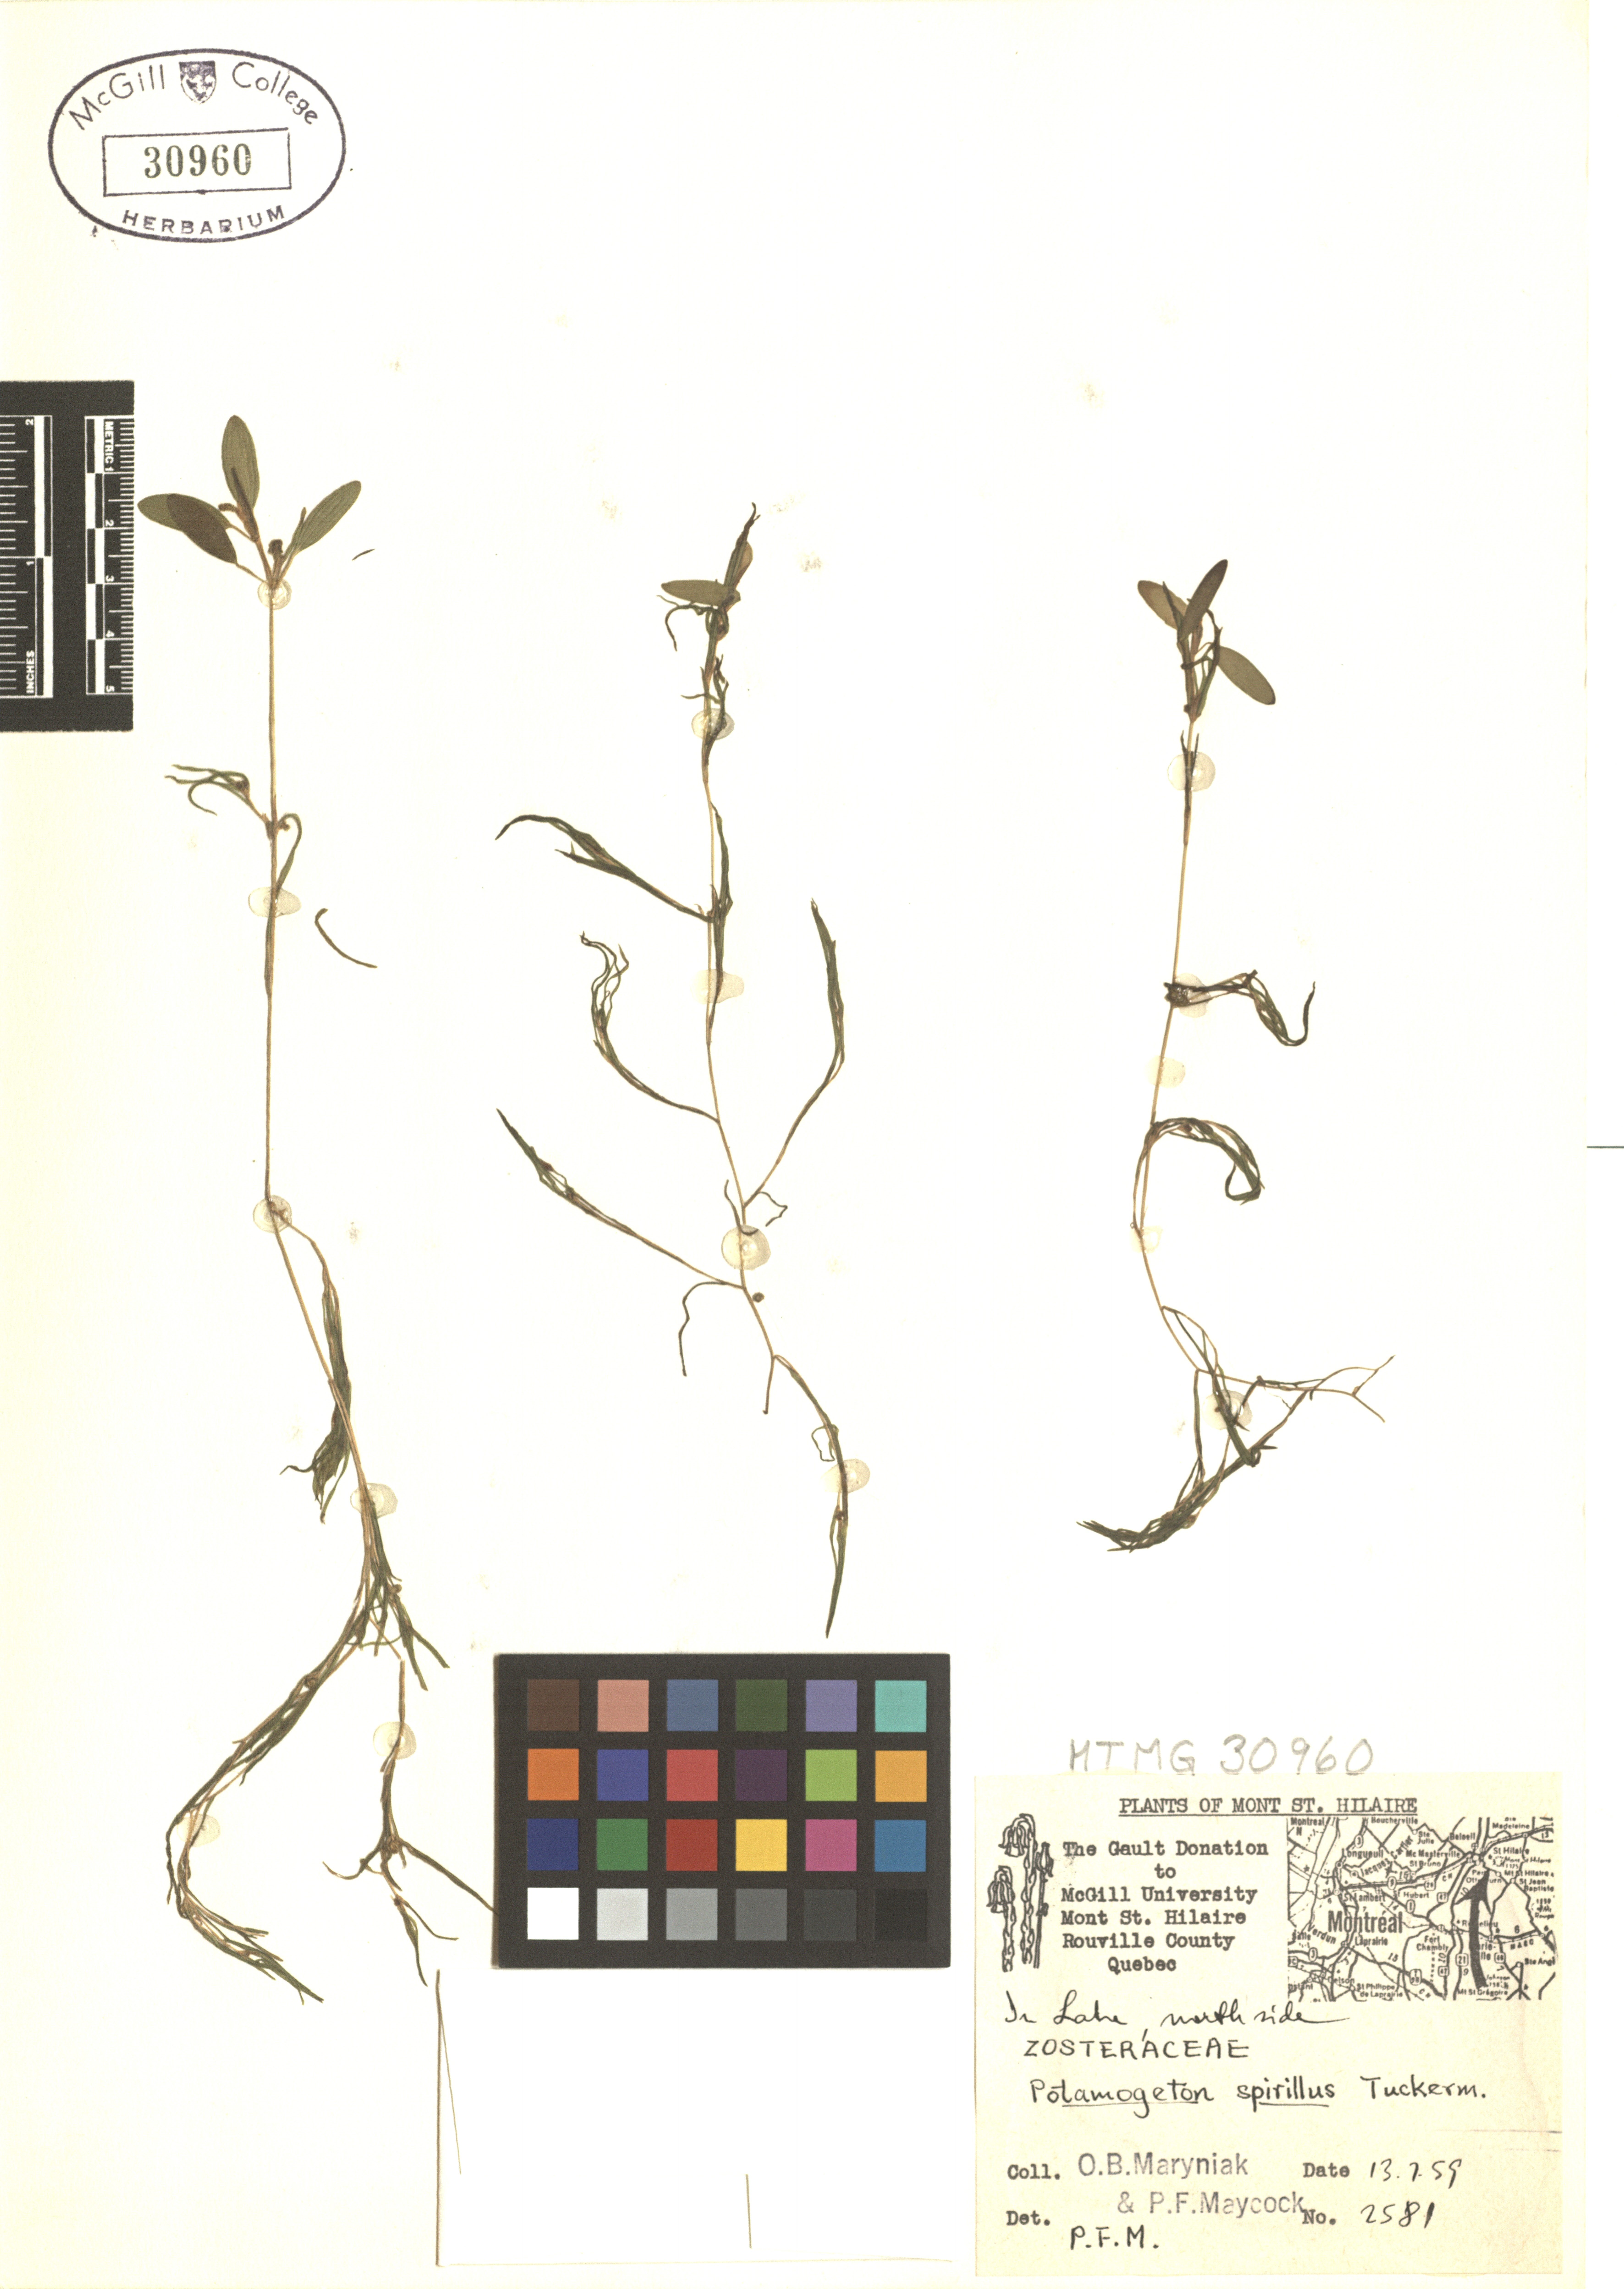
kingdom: Plantae
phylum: Tracheophyta
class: Liliopsida
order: Alismatales
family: Potamogetonaceae
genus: Potamogeton
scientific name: Potamogeton spirillus
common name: Northern snail-seed pondweed
